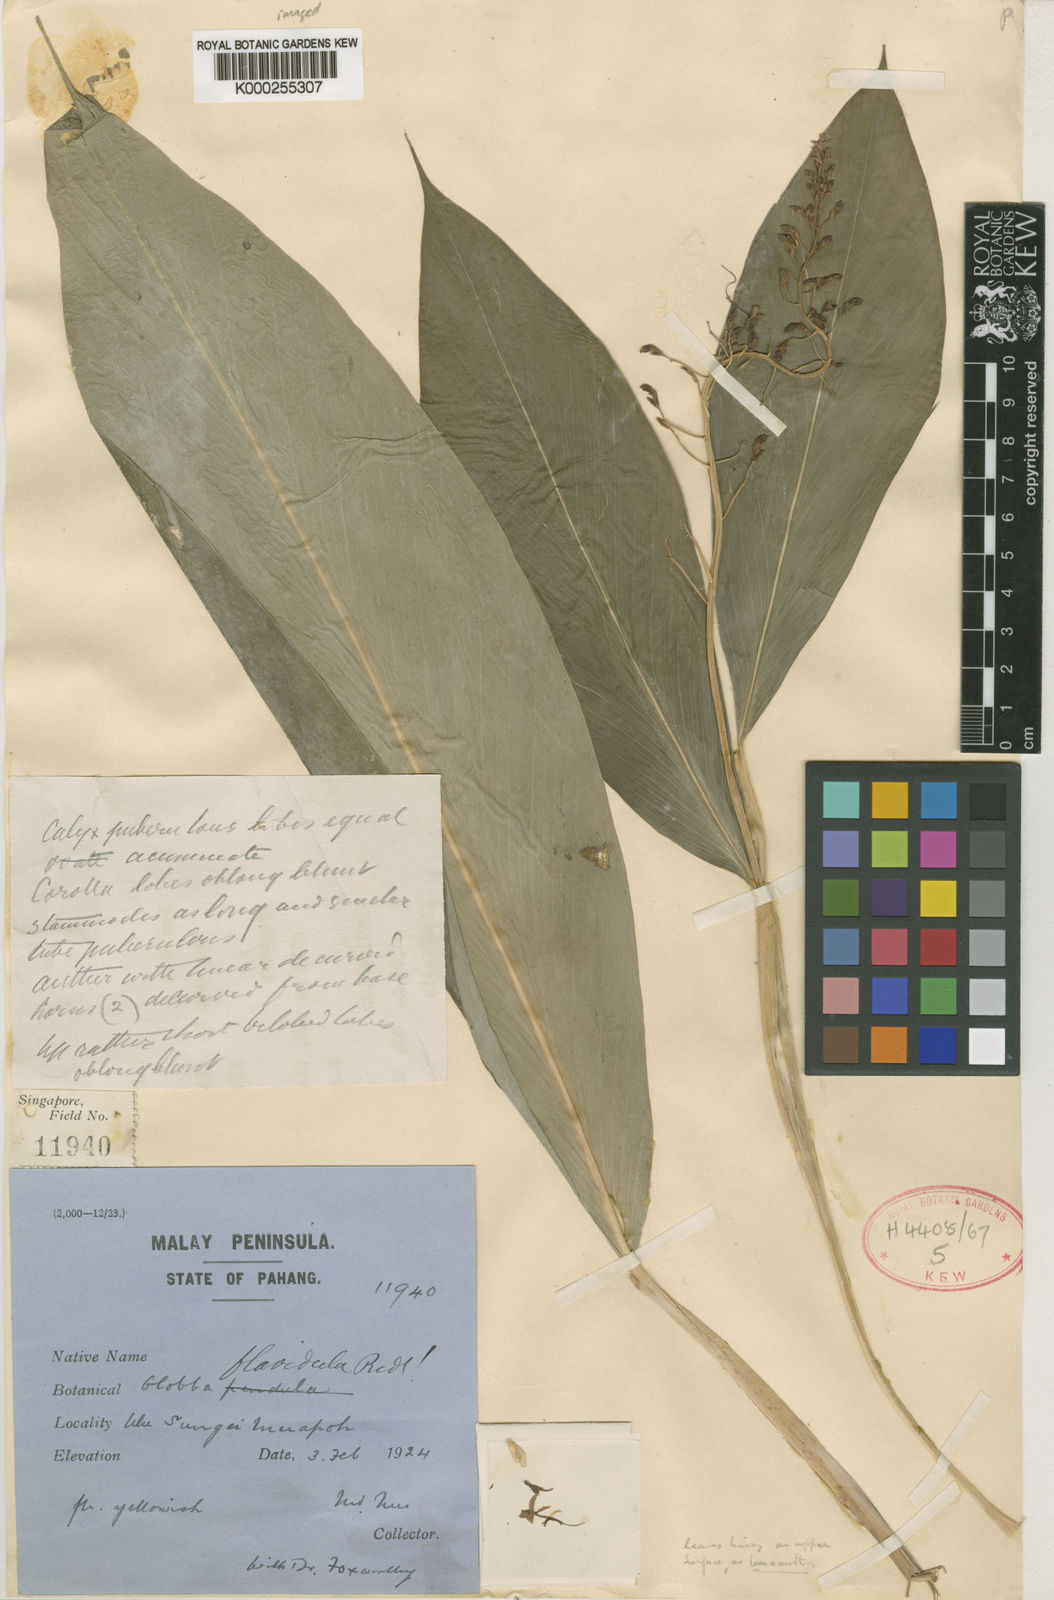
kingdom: Plantae
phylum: Tracheophyta
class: Liliopsida
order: Zingiberales
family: Zingiberaceae
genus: Globba
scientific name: Globba leucantha
